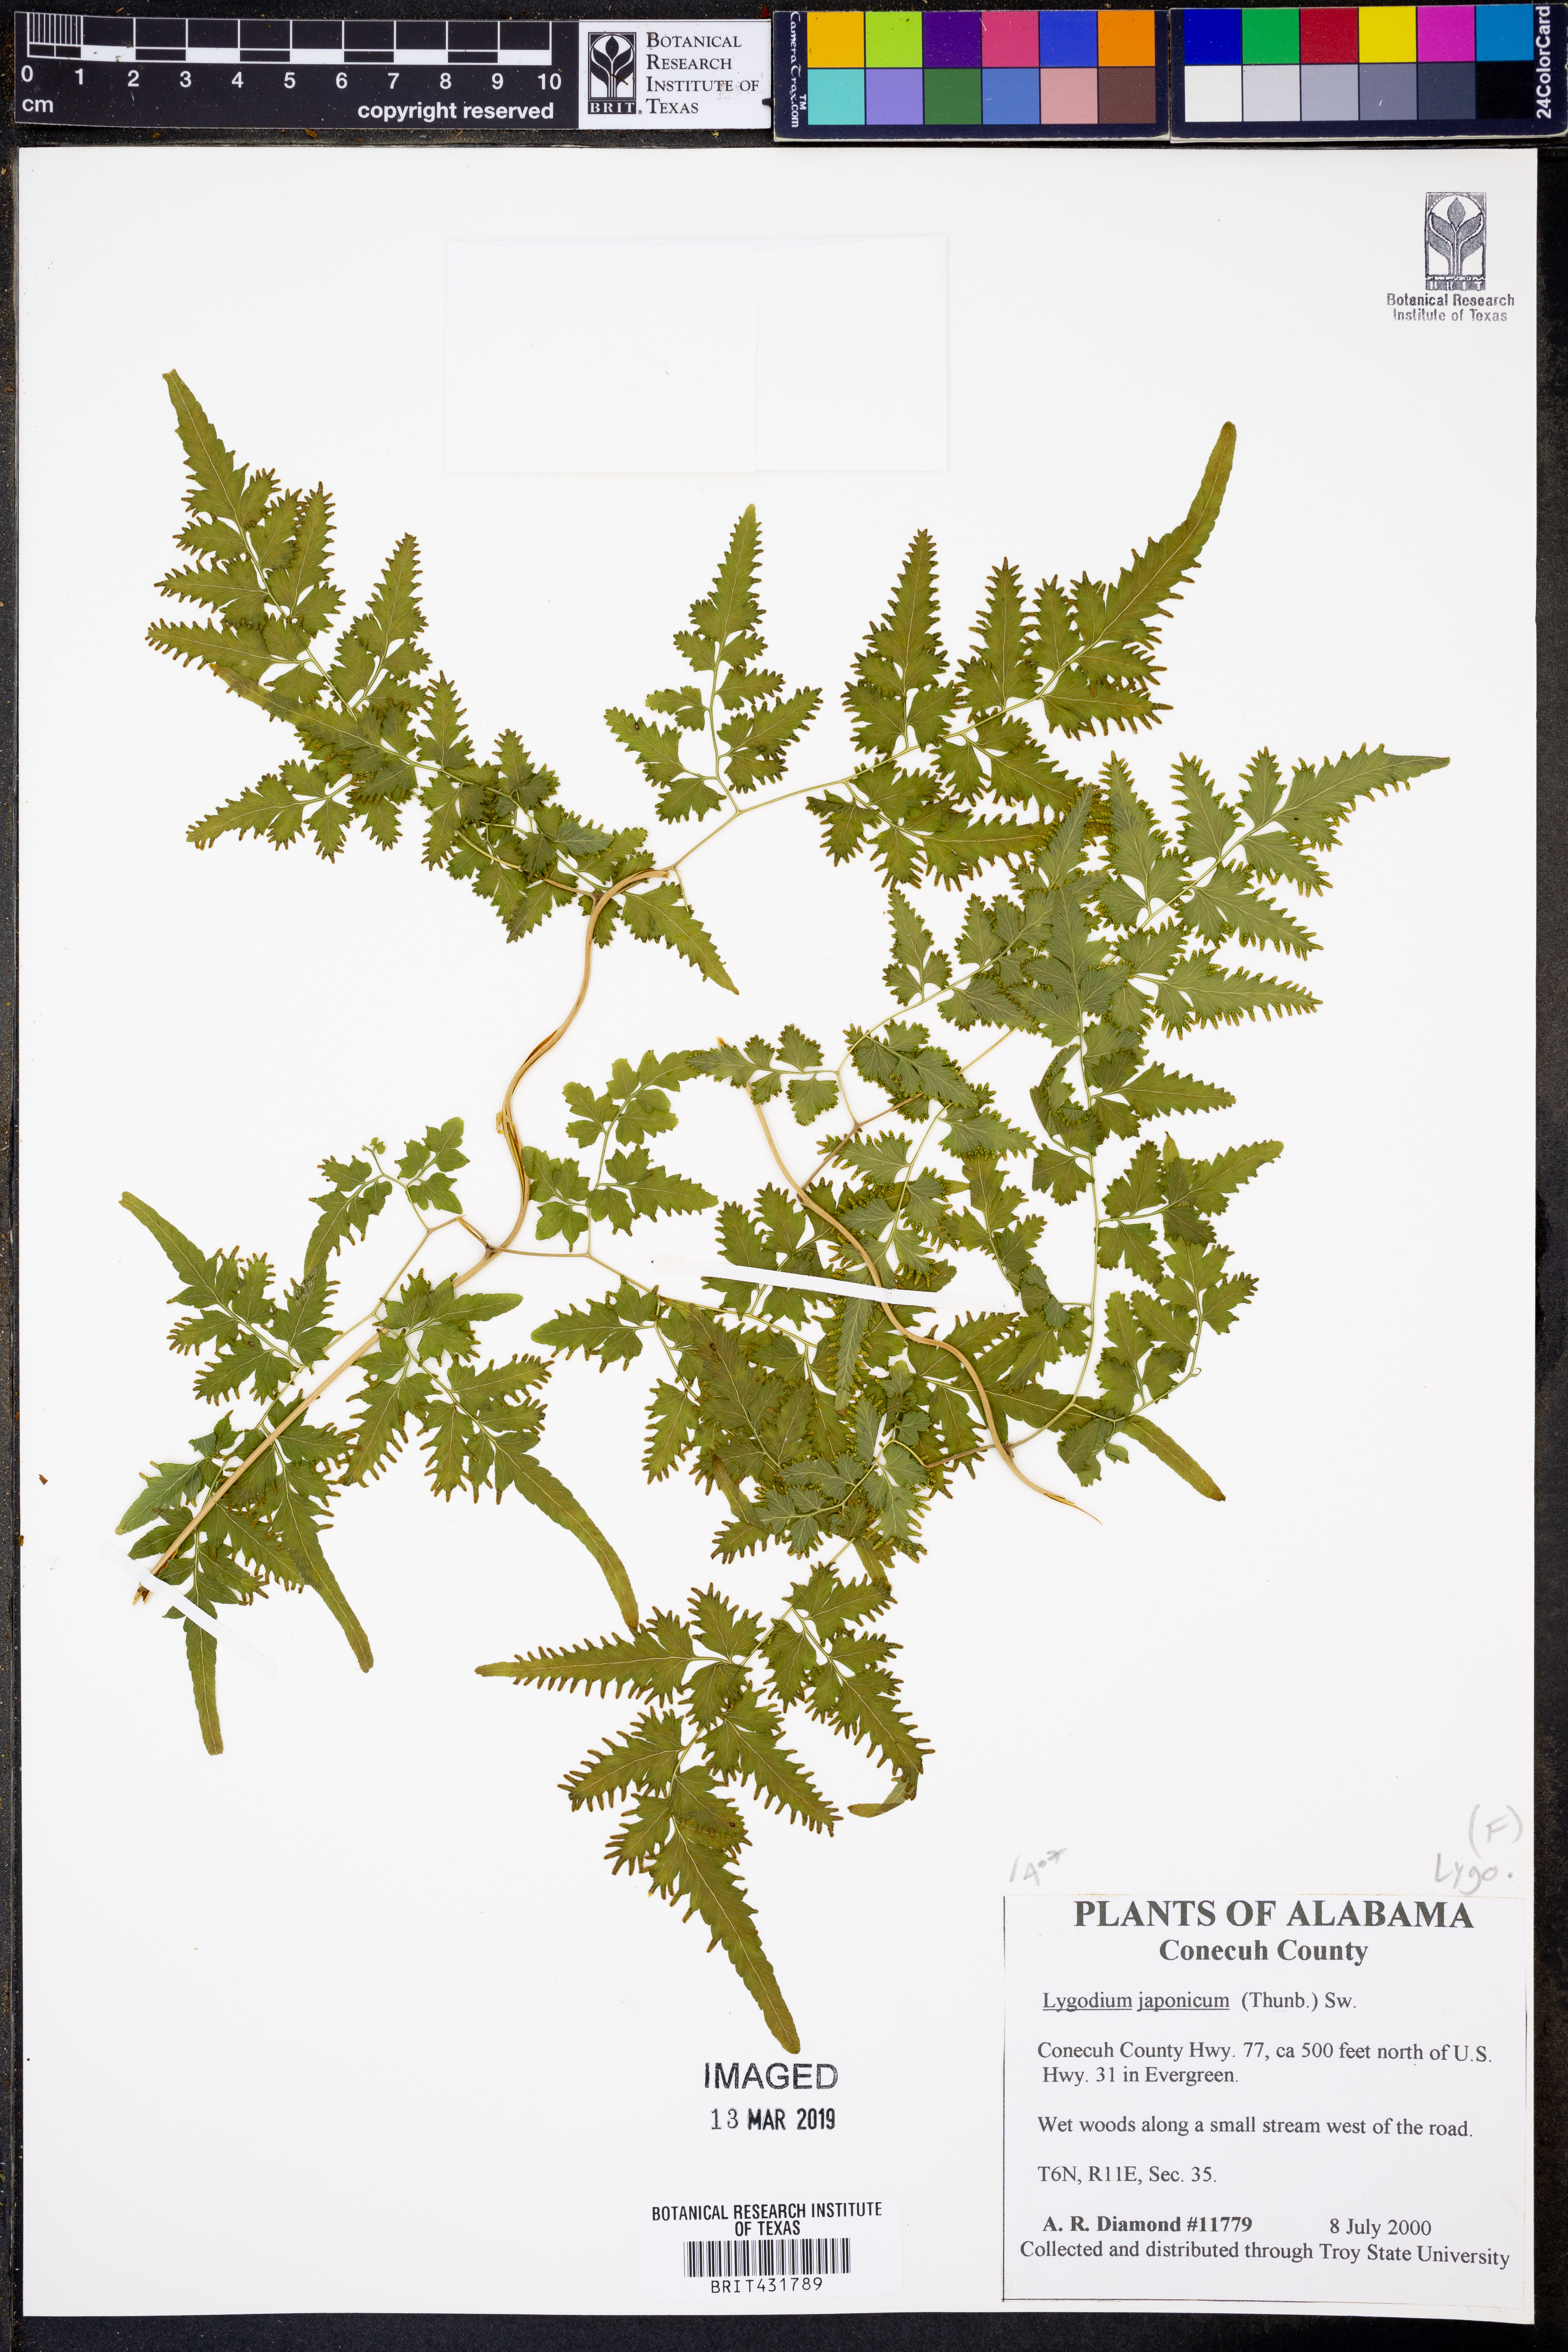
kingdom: Plantae
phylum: Tracheophyta
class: Polypodiopsida
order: Schizaeales
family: Lygodiaceae
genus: Lygodium
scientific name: Lygodium japonicum
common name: Japanese climbing fern
